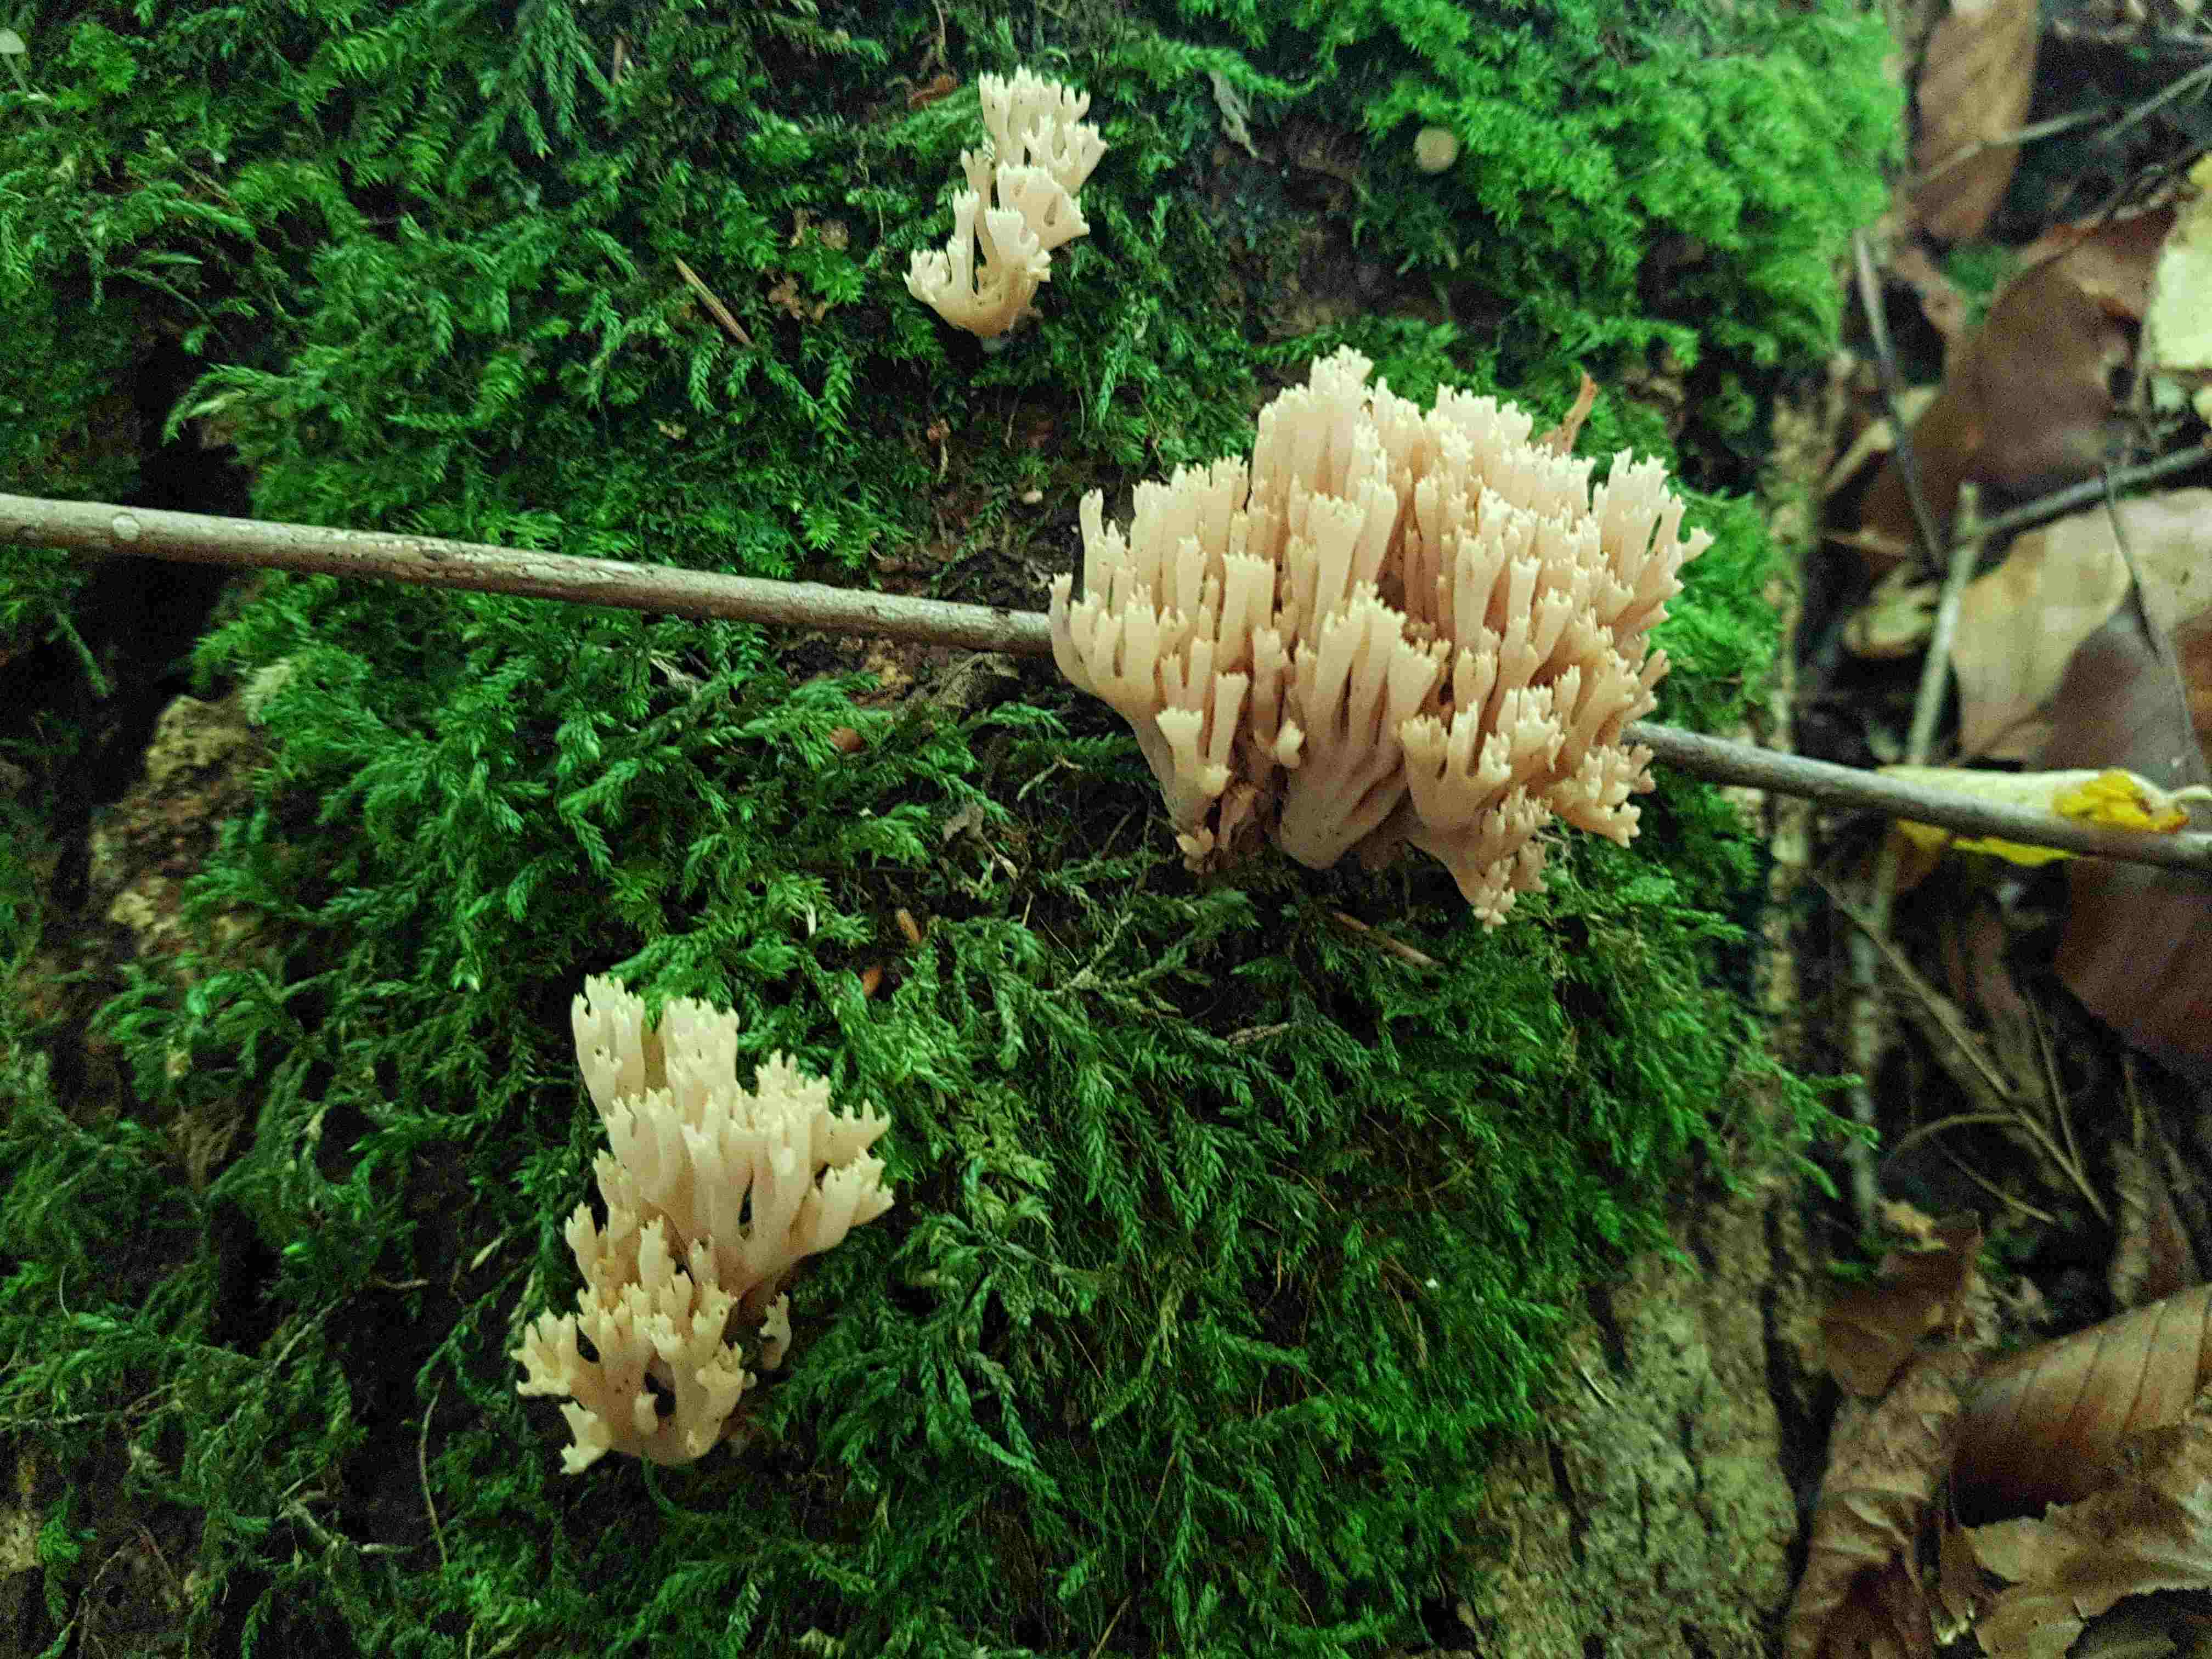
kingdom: Fungi
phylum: Basidiomycota
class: Agaricomycetes
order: Gomphales
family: Gomphaceae
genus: Ramaria
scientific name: Ramaria stricta
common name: rank koralsvamp
